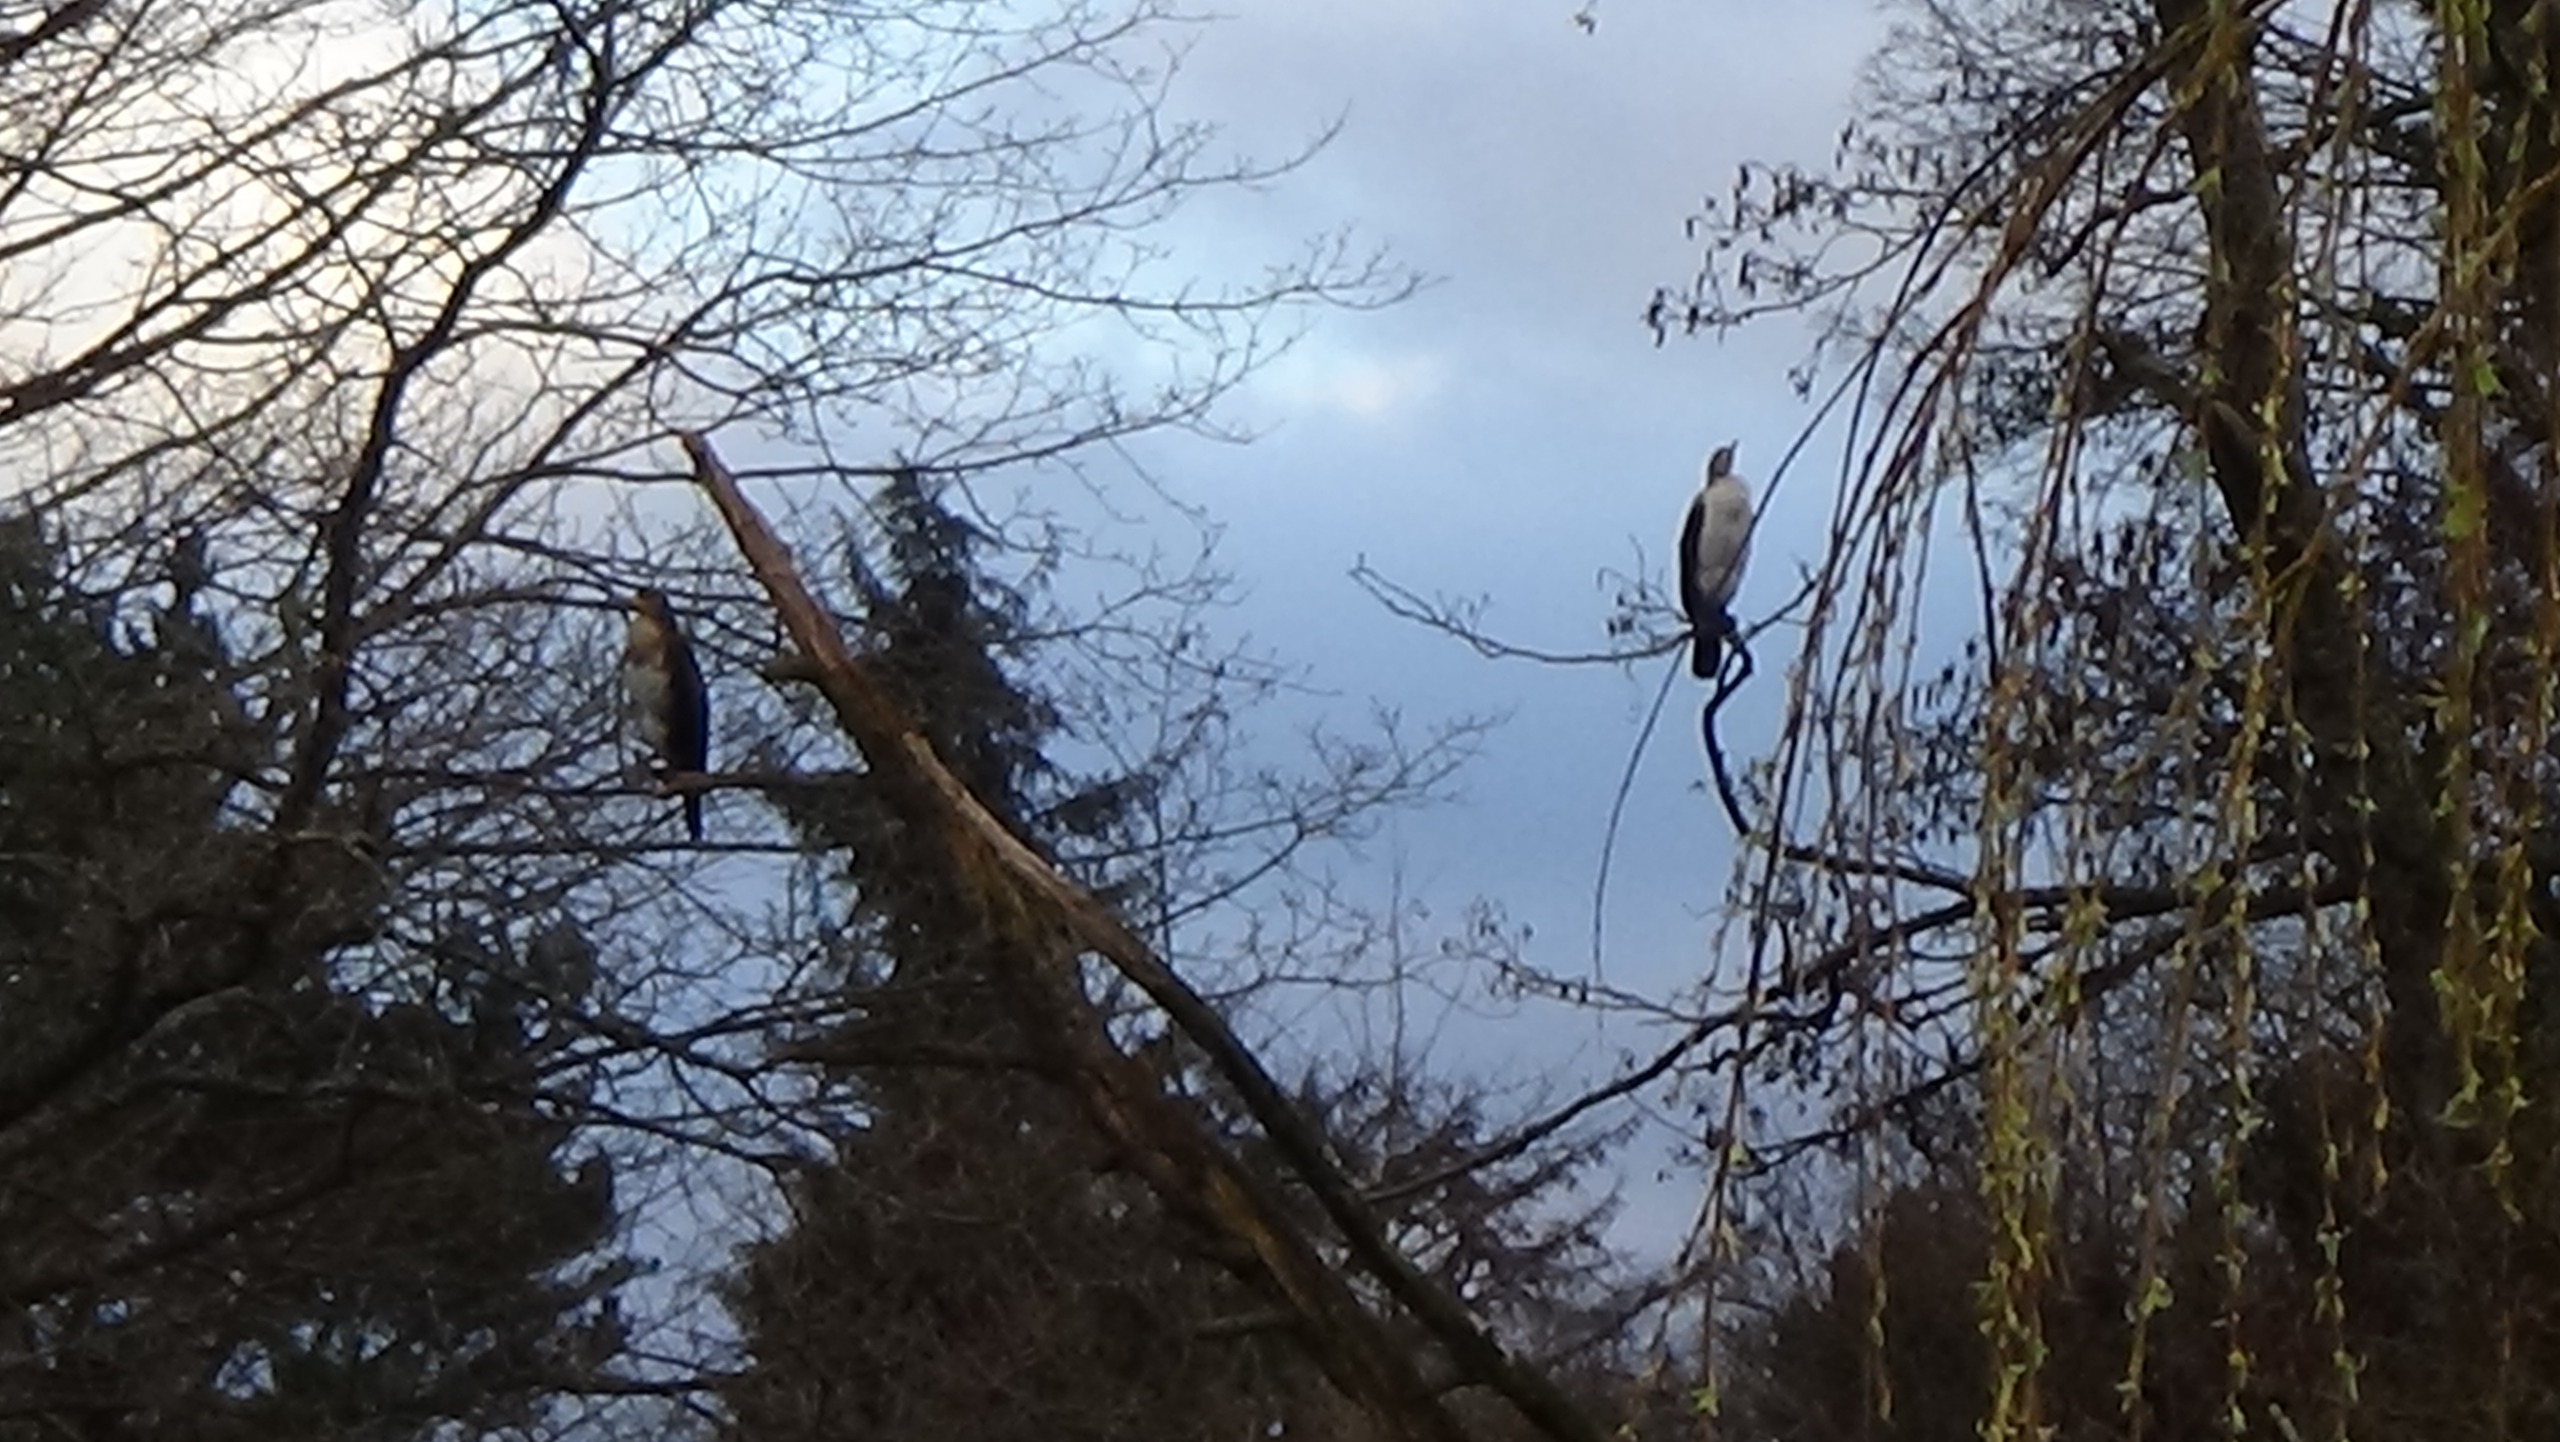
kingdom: Animalia
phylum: Chordata
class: Aves
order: Suliformes
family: Phalacrocoracidae
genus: Phalacrocorax
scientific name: Phalacrocorax carbo
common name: Skarv
